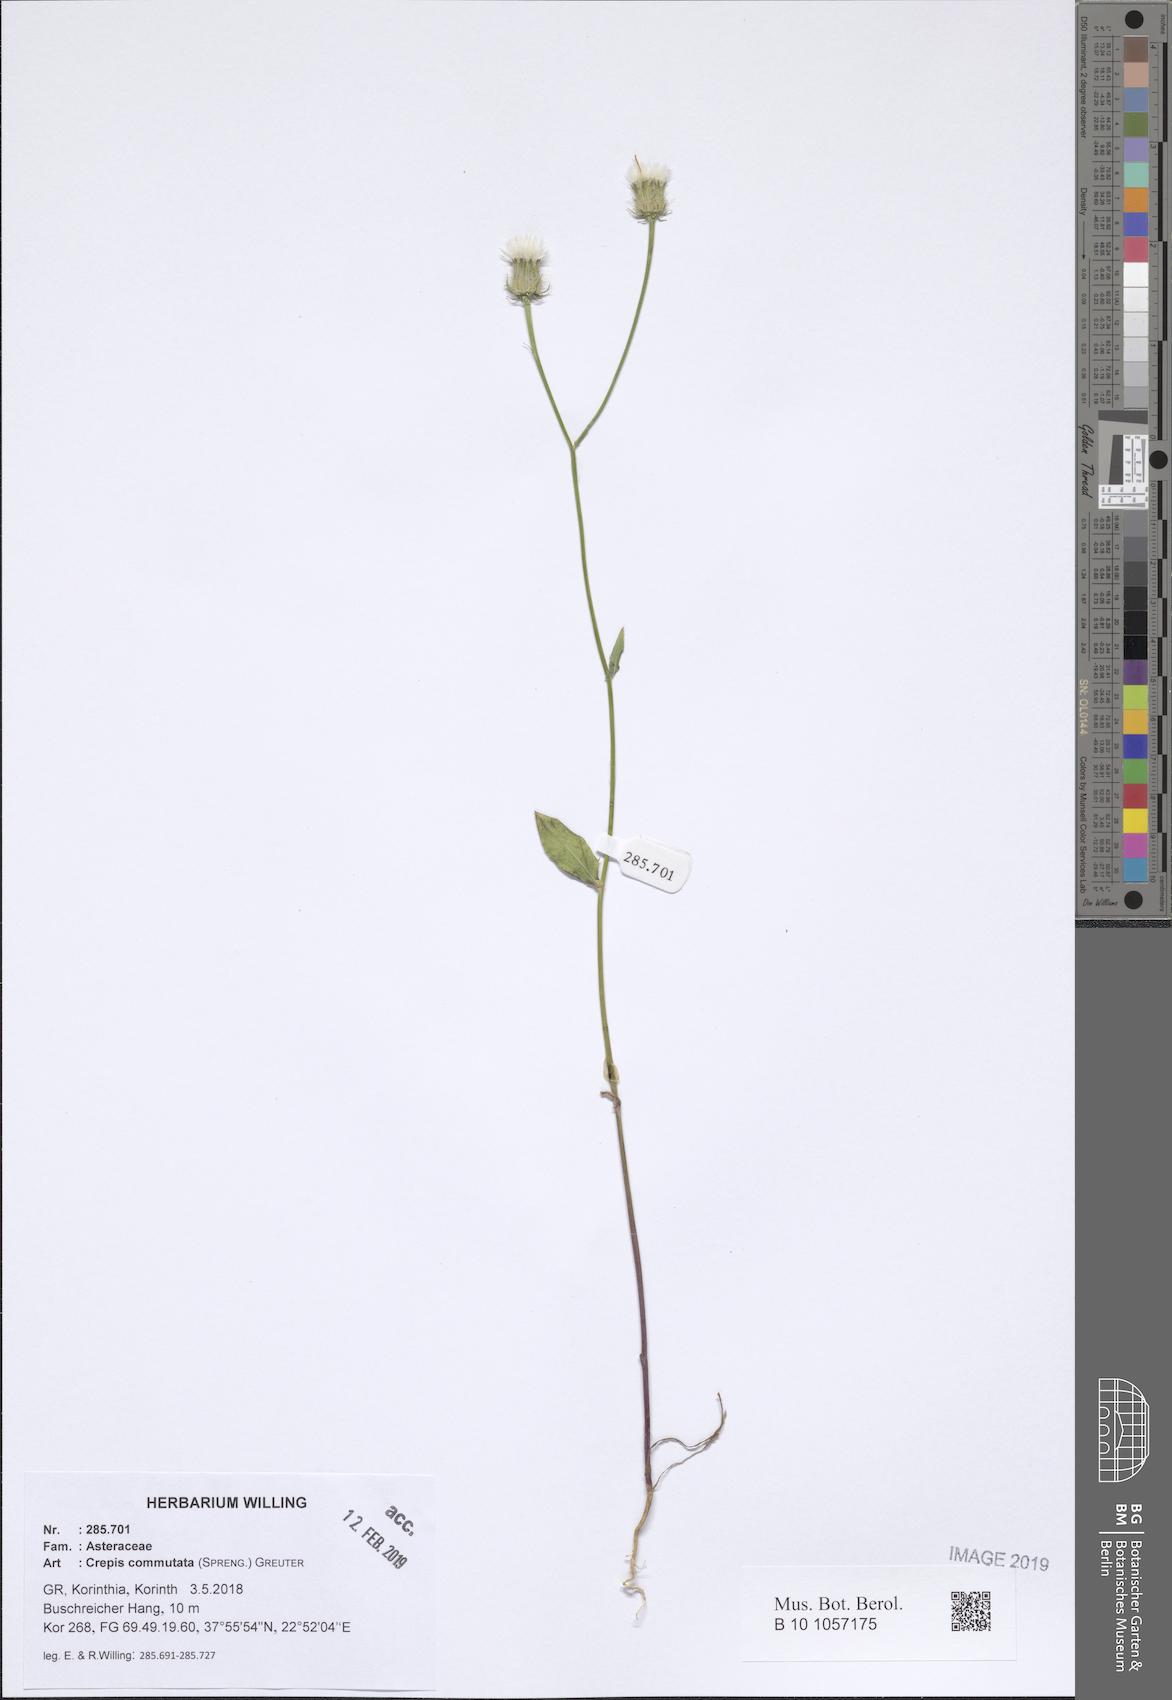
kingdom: Plantae
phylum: Tracheophyta
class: Magnoliopsida
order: Asterales
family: Asteraceae
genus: Crepis
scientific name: Crepis commutata
